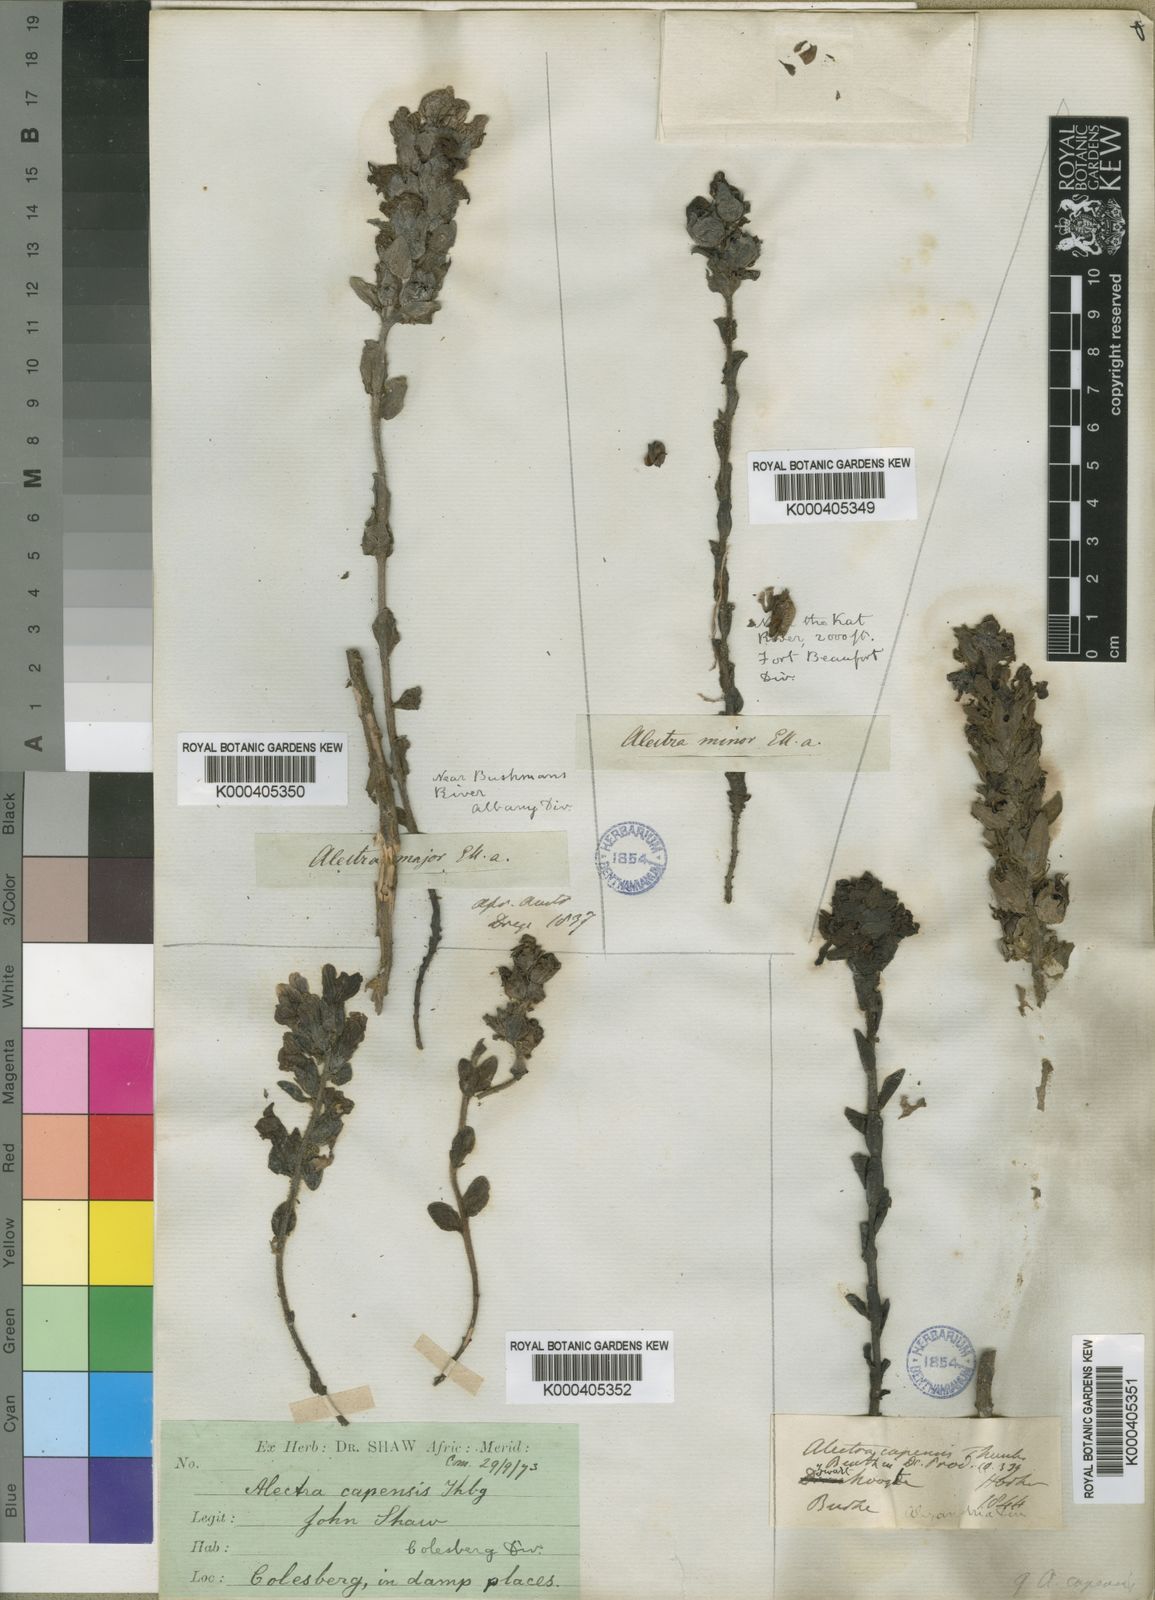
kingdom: Plantae
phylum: Tracheophyta
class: Magnoliopsida
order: Lamiales
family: Orobanchaceae
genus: Alectra
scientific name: Alectra capensis
